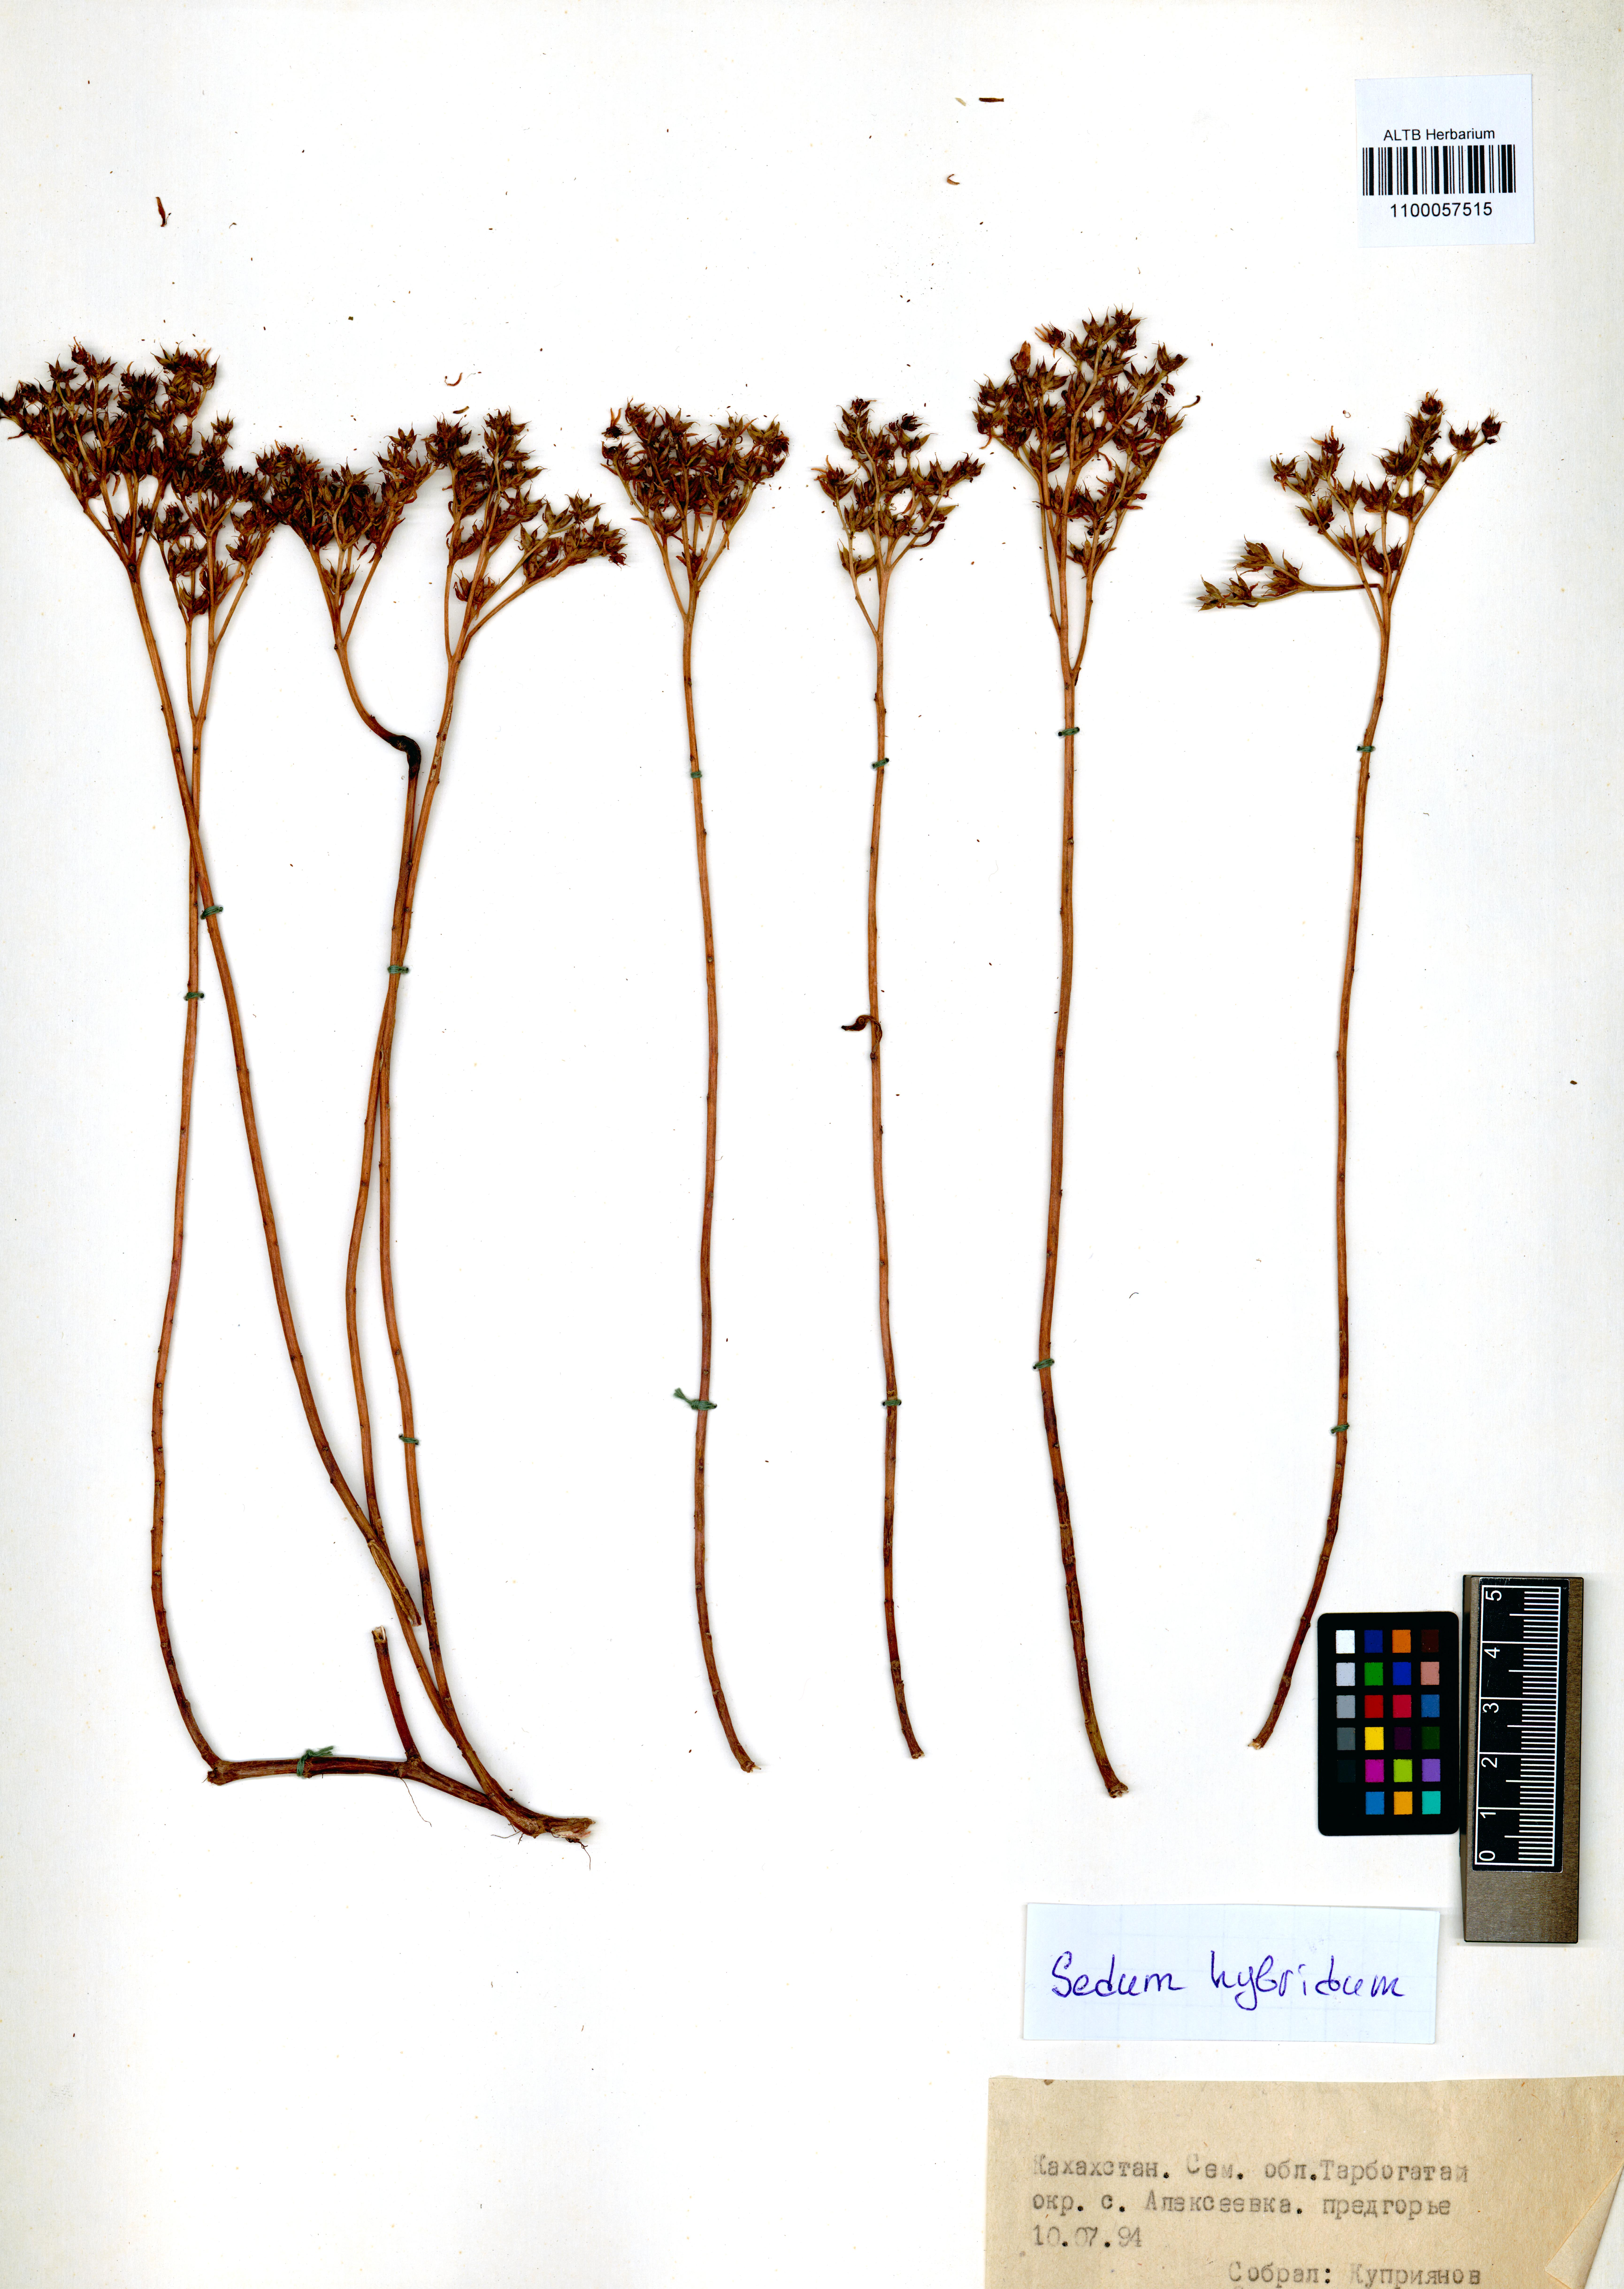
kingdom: Plantae
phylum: Tracheophyta
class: Magnoliopsida
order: Saxifragales
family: Crassulaceae
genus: Phedimus
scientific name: Phedimus hybridus
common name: Hybrid stonecrop
